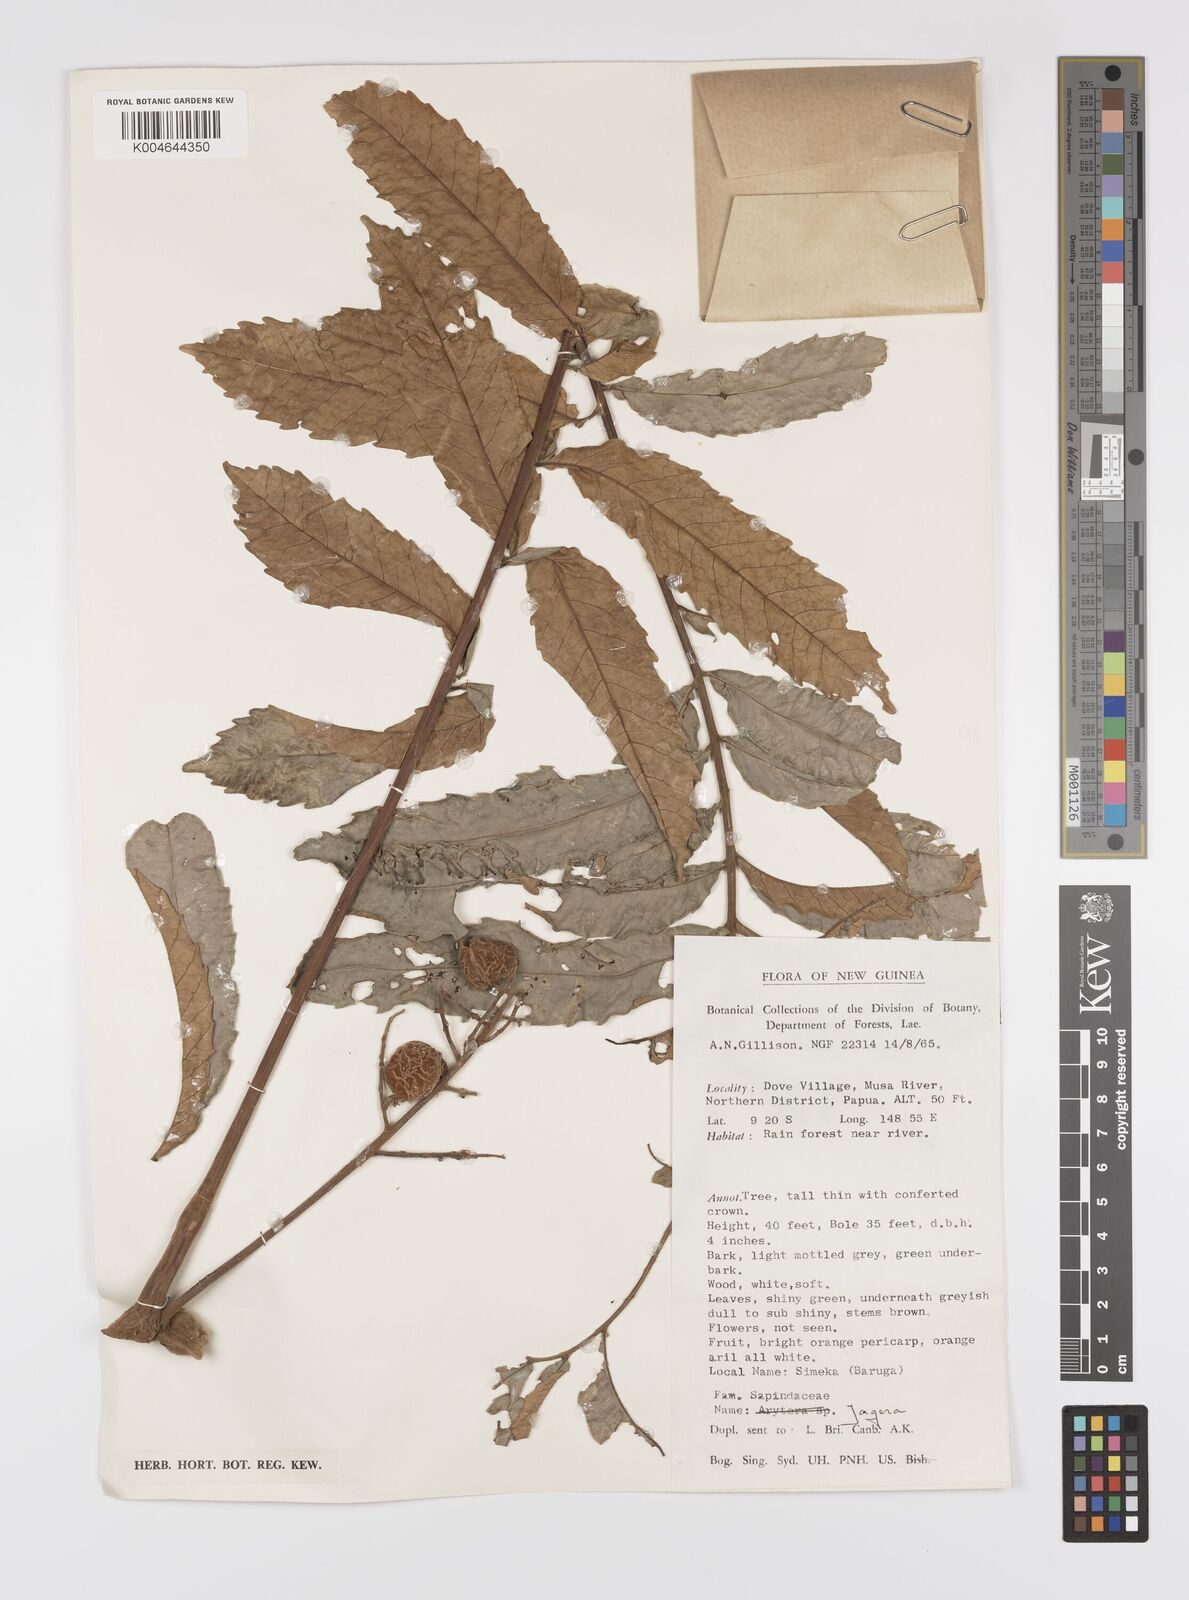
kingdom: Plantae
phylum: Tracheophyta
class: Magnoliopsida
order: Sapindales
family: Sapindaceae
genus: Jagera
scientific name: Jagera
